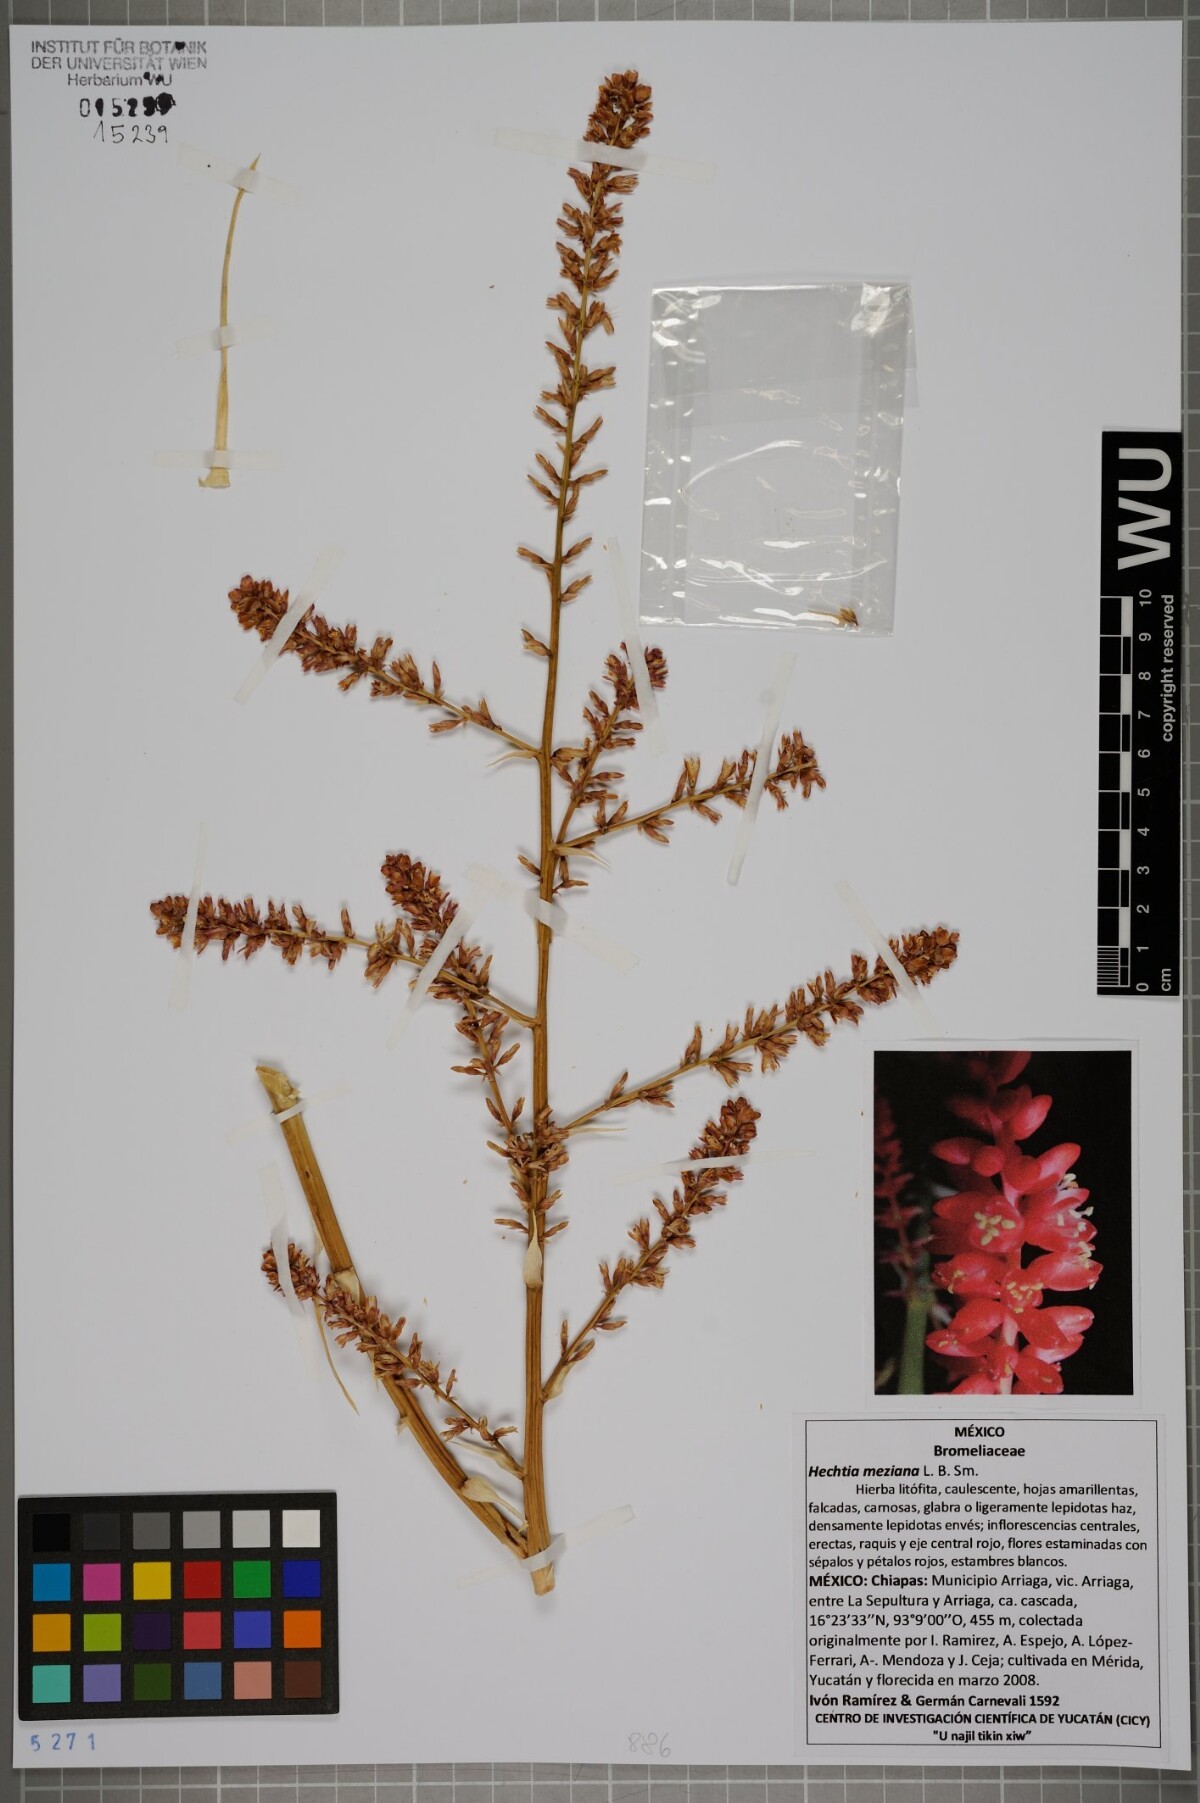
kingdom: Plantae
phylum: Tracheophyta
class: Liliopsida
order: Poales
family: Bromeliaceae
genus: Hechtia
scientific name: Hechtia rosea
